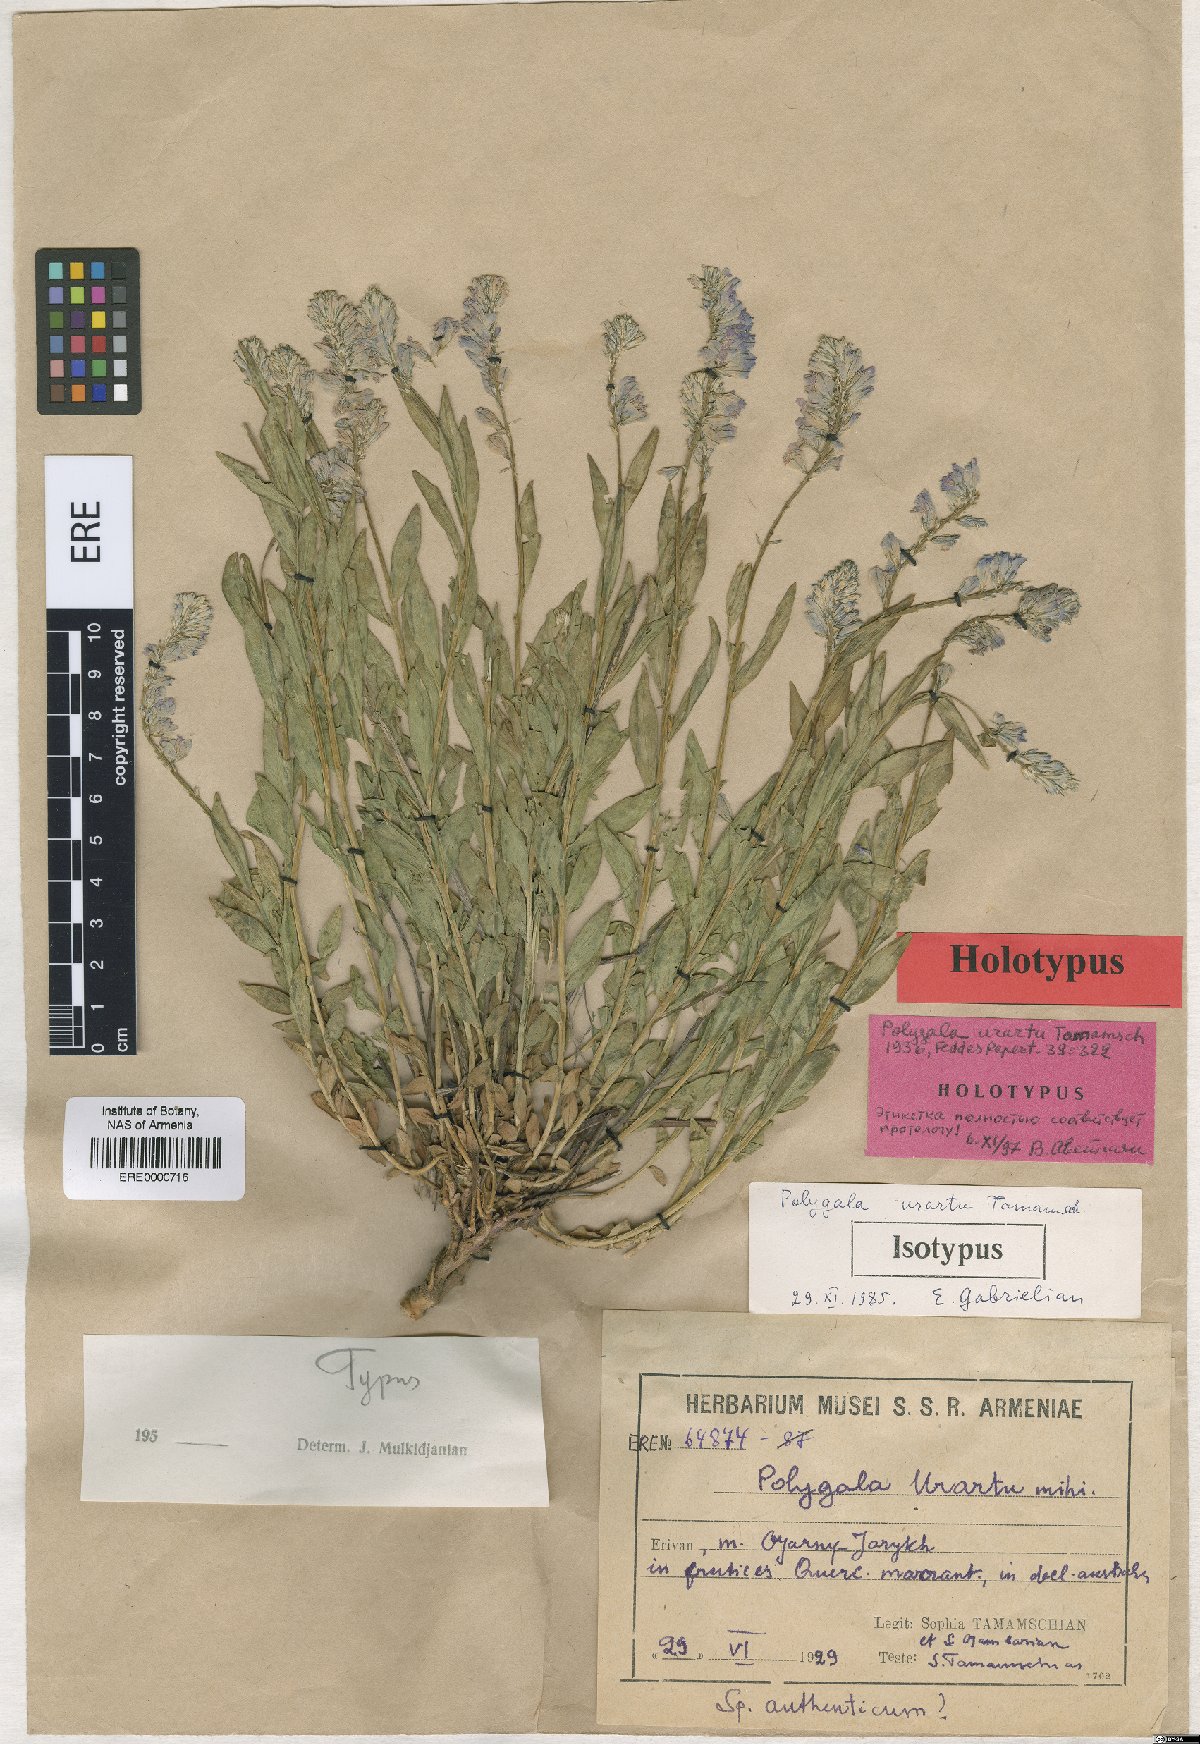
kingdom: Plantae
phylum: Tracheophyta
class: Magnoliopsida
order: Fabales
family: Polygalaceae
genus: Polygala
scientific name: Polygala urartu
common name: Urartuan milkwort
